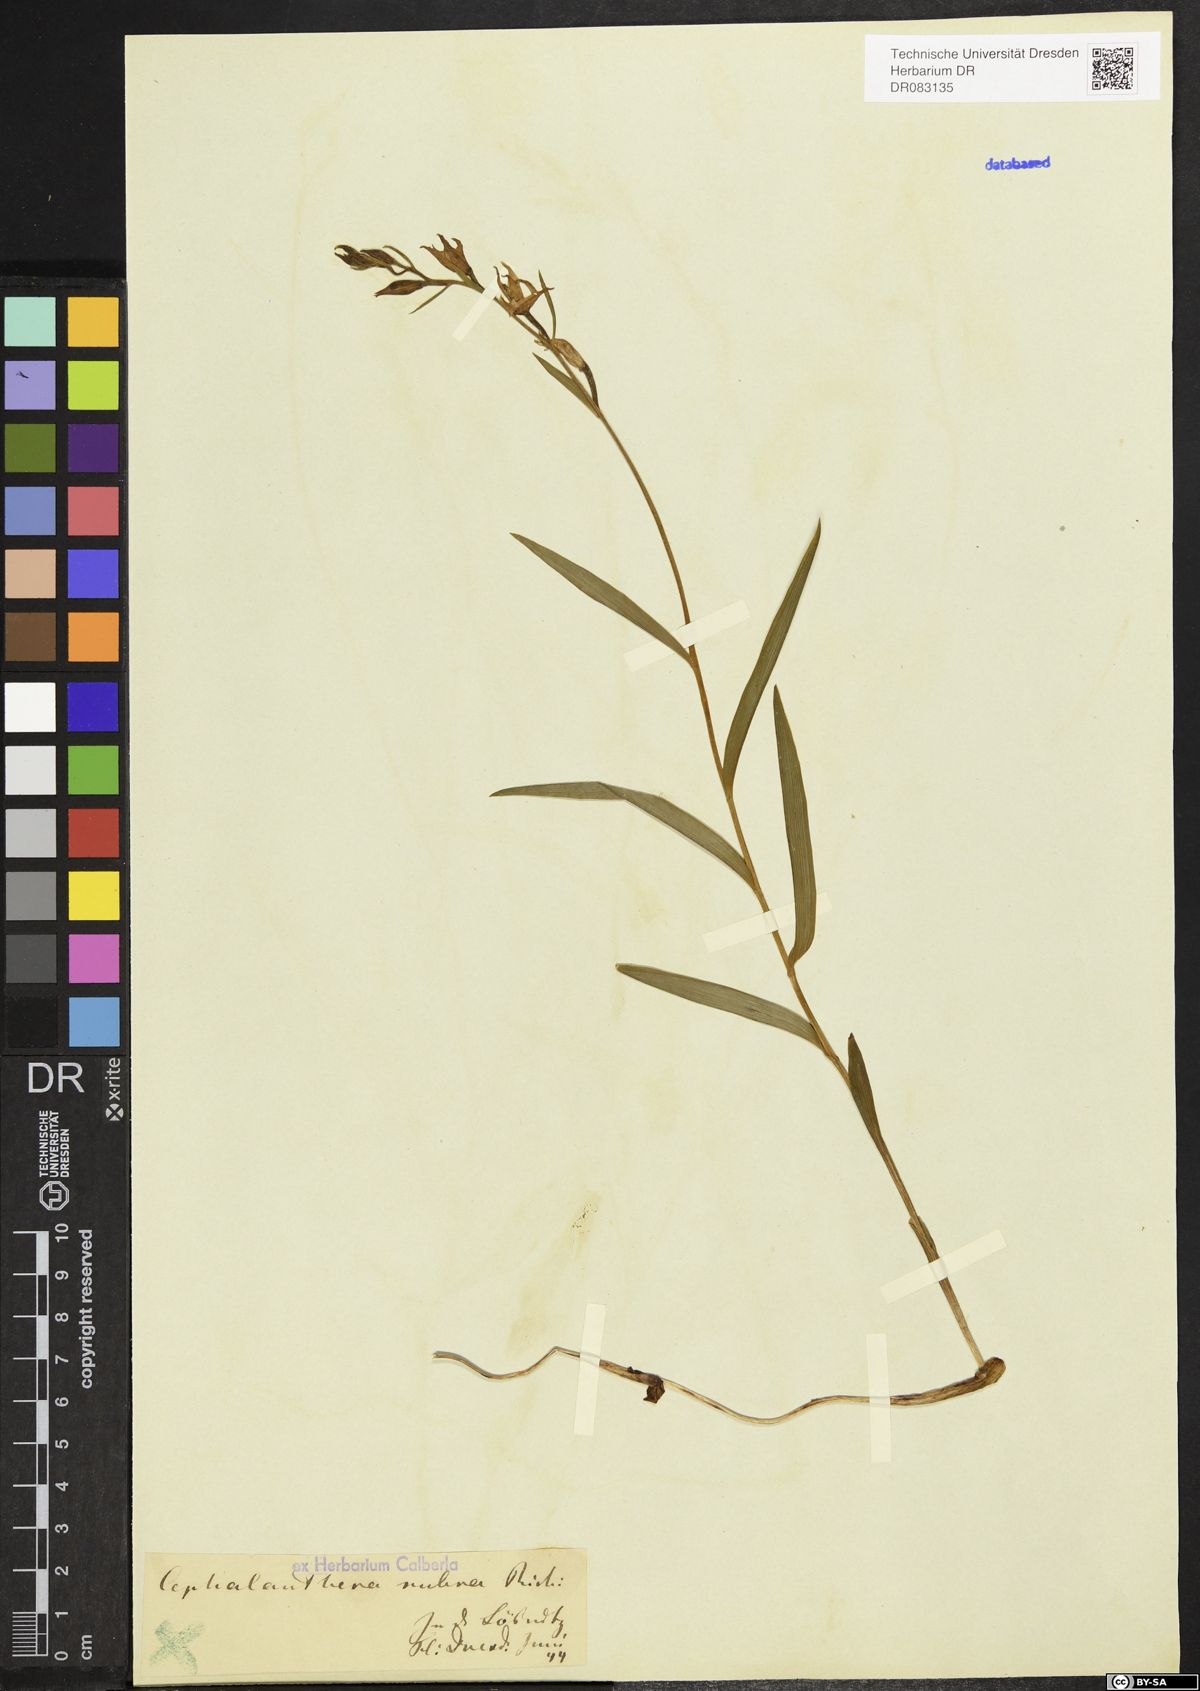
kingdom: Plantae
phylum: Tracheophyta
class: Liliopsida
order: Asparagales
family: Orchidaceae
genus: Cephalanthera
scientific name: Cephalanthera rubra
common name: Red helleborine
